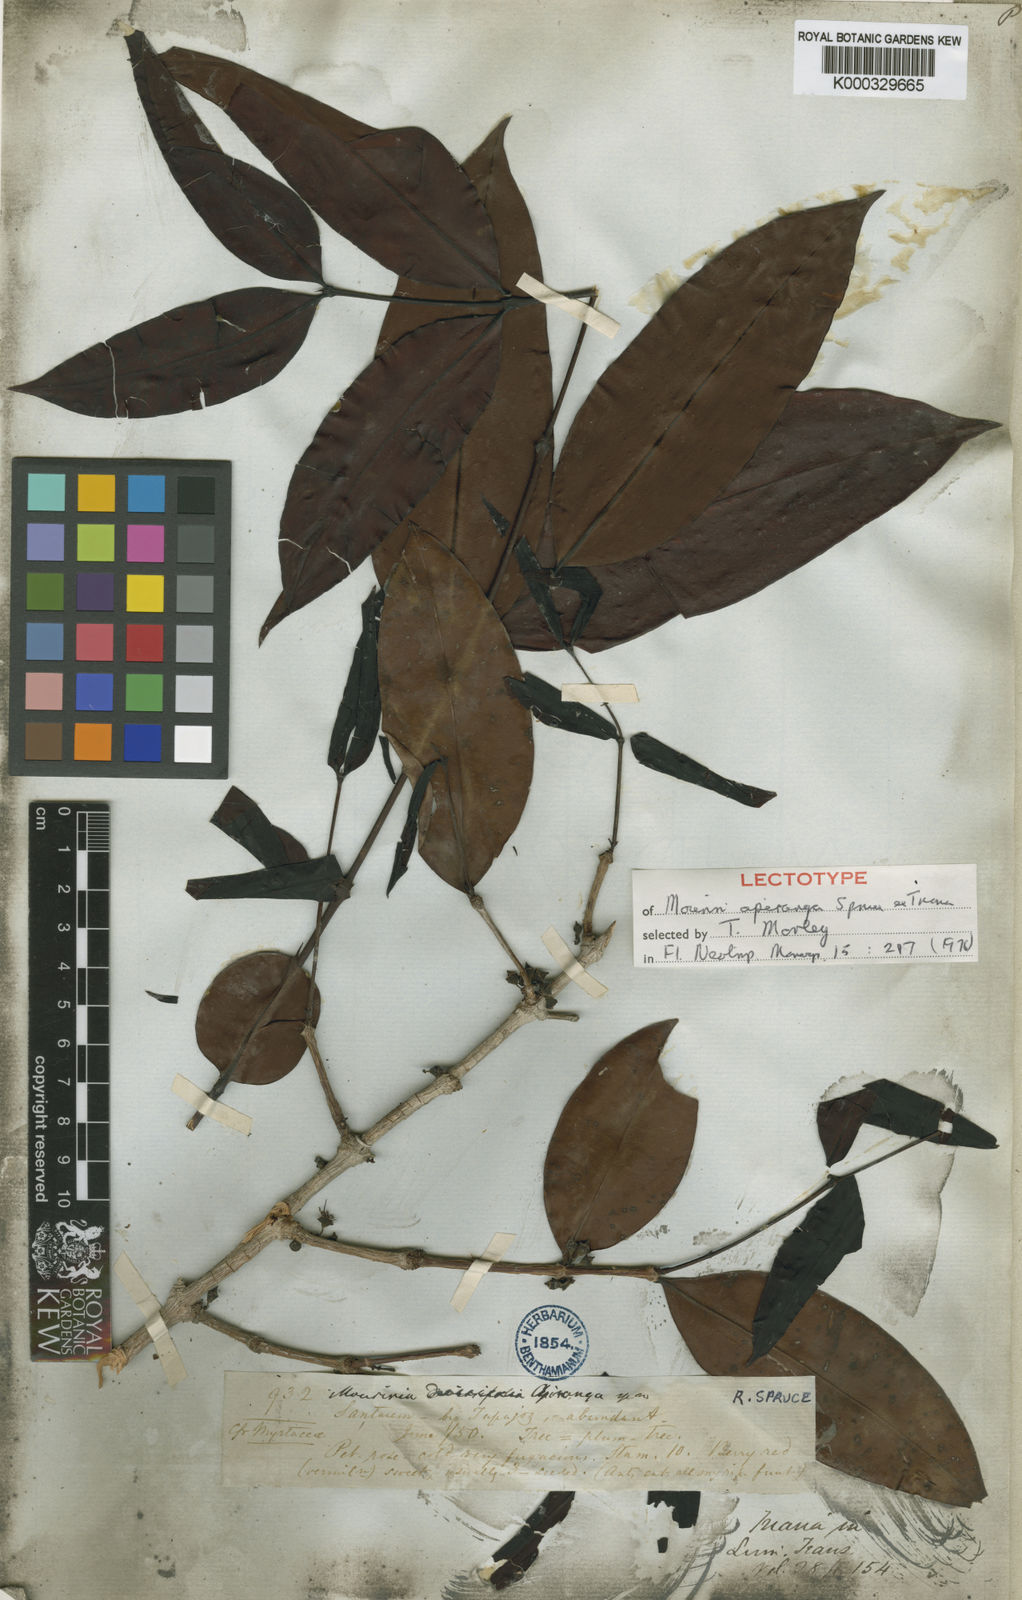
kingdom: Plantae
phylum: Tracheophyta
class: Magnoliopsida
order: Myrtales
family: Melastomataceae
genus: Mouriri
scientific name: Mouriri apiranga
